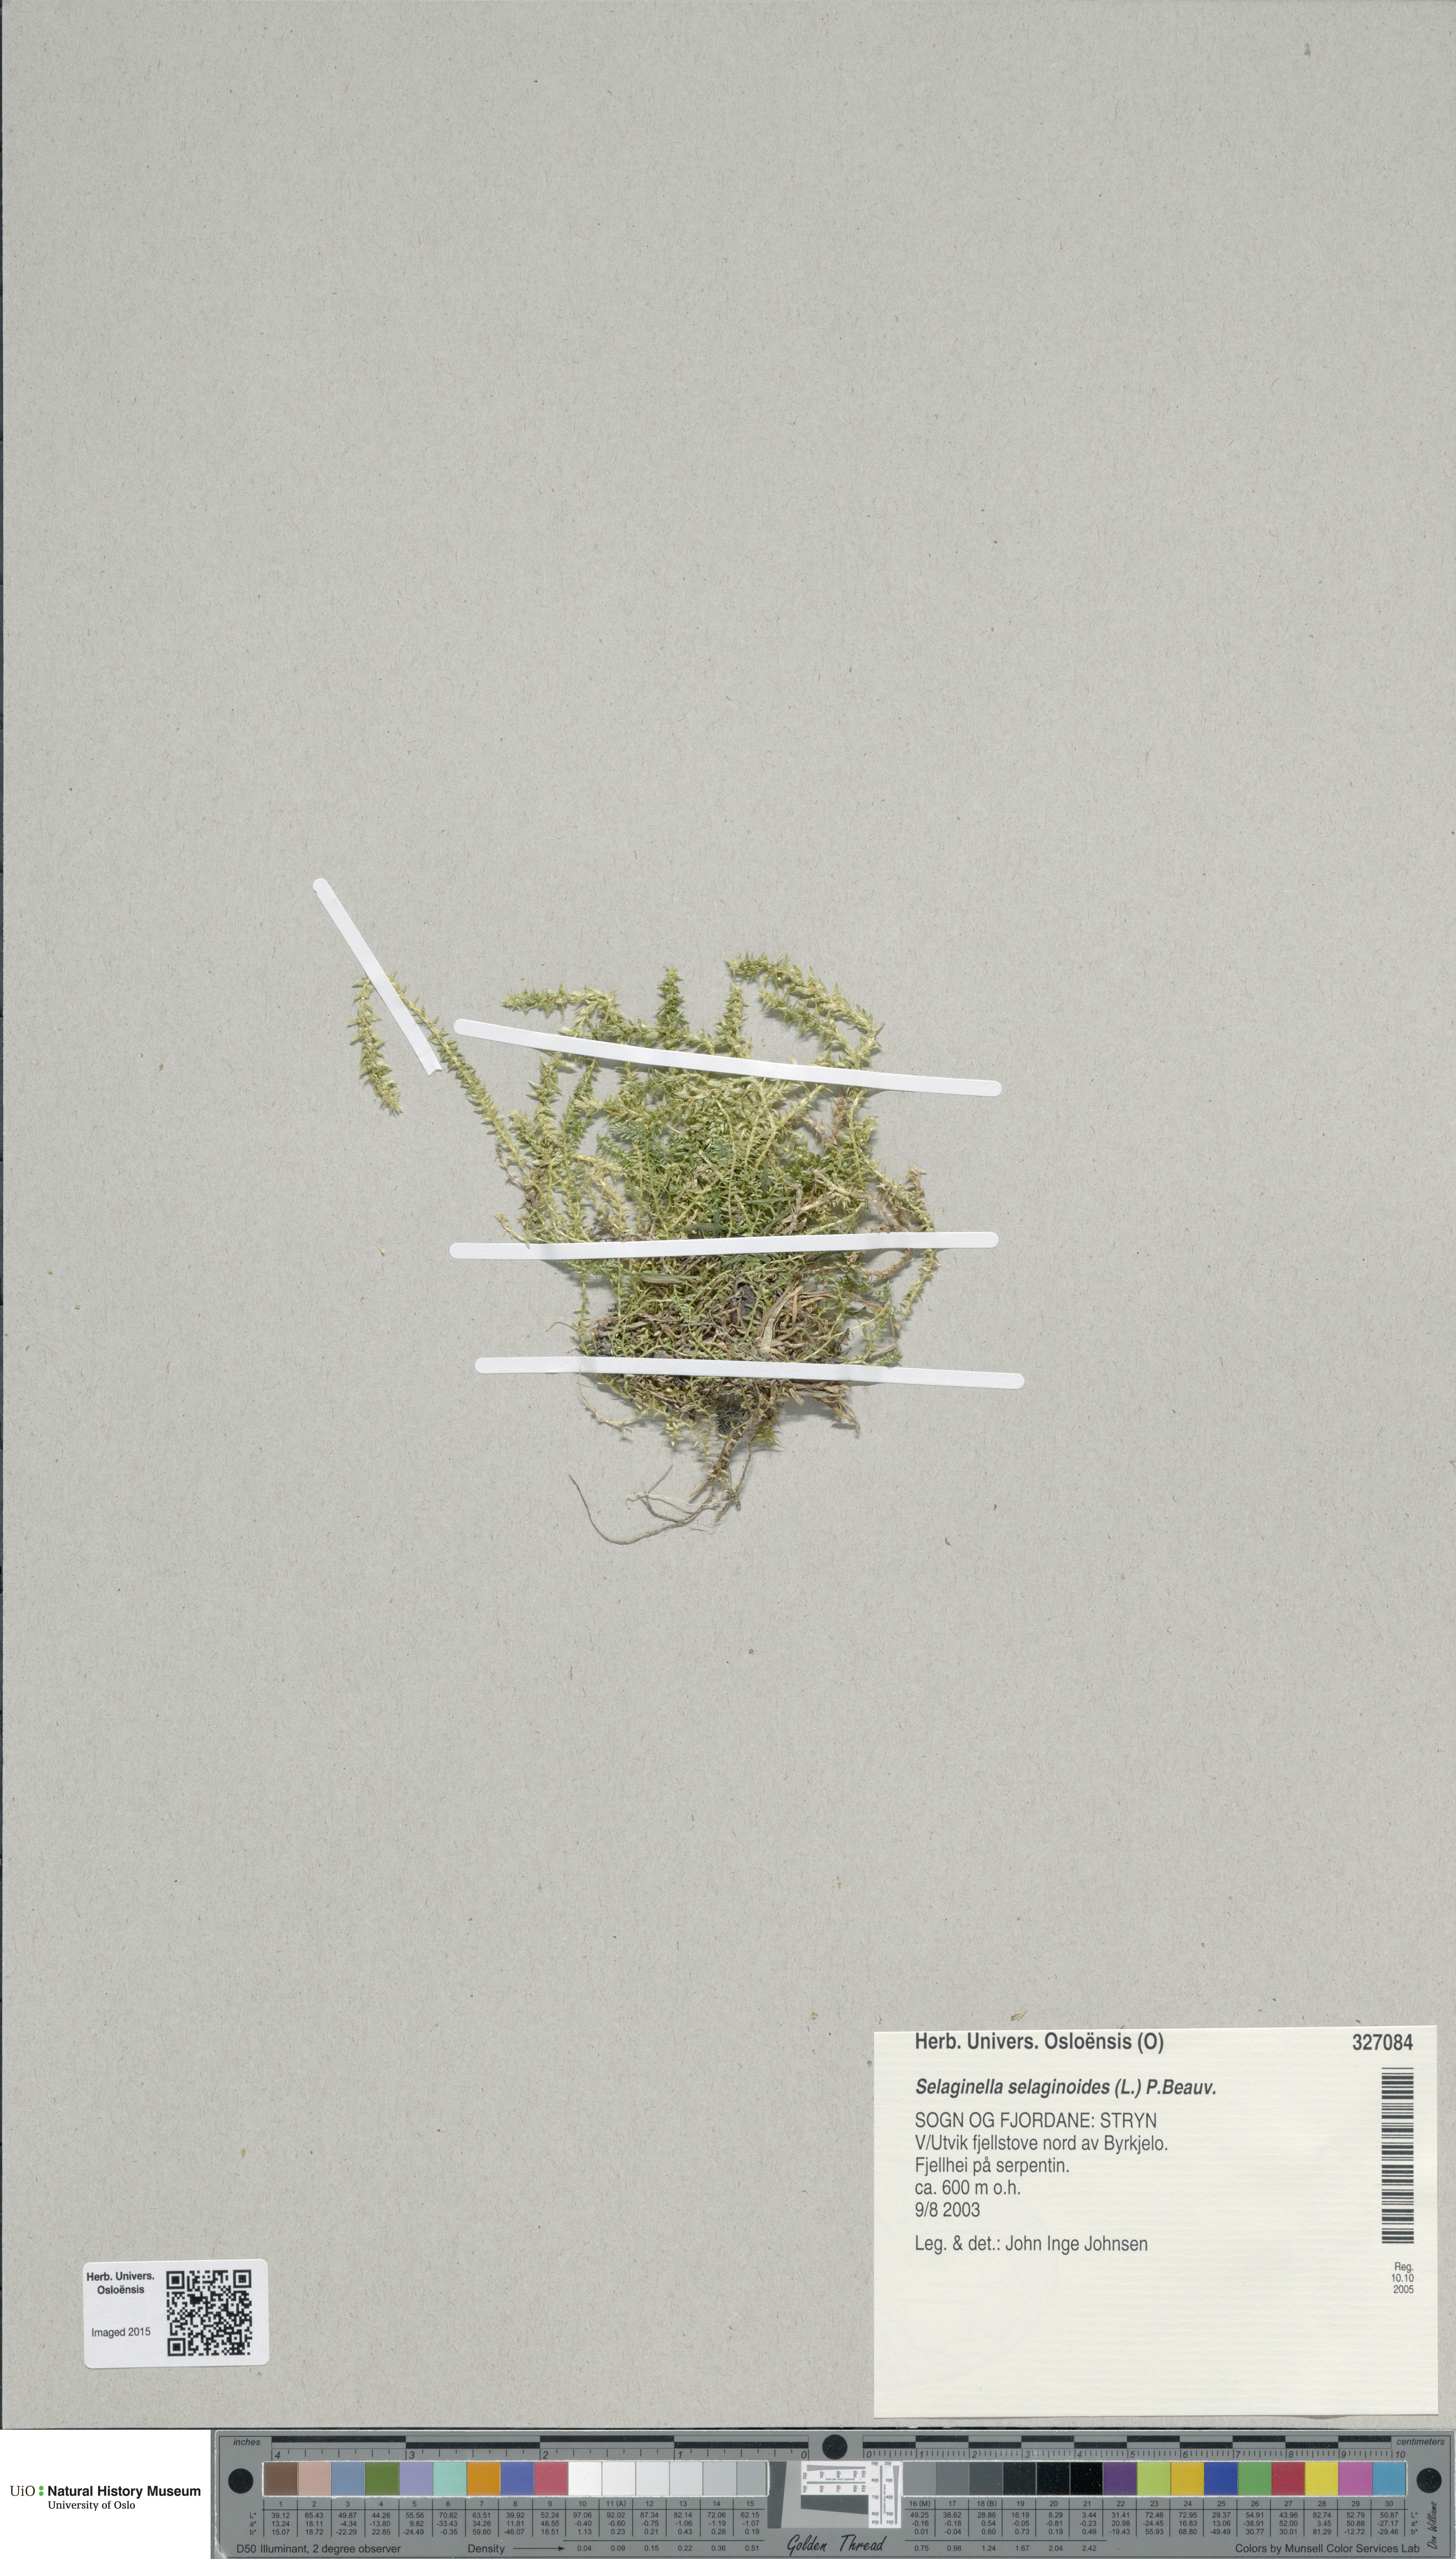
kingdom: Plantae
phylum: Tracheophyta
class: Lycopodiopsida
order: Selaginellales
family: Selaginellaceae
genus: Selaginella
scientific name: Selaginella selaginoides
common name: Prickly mountain-moss
